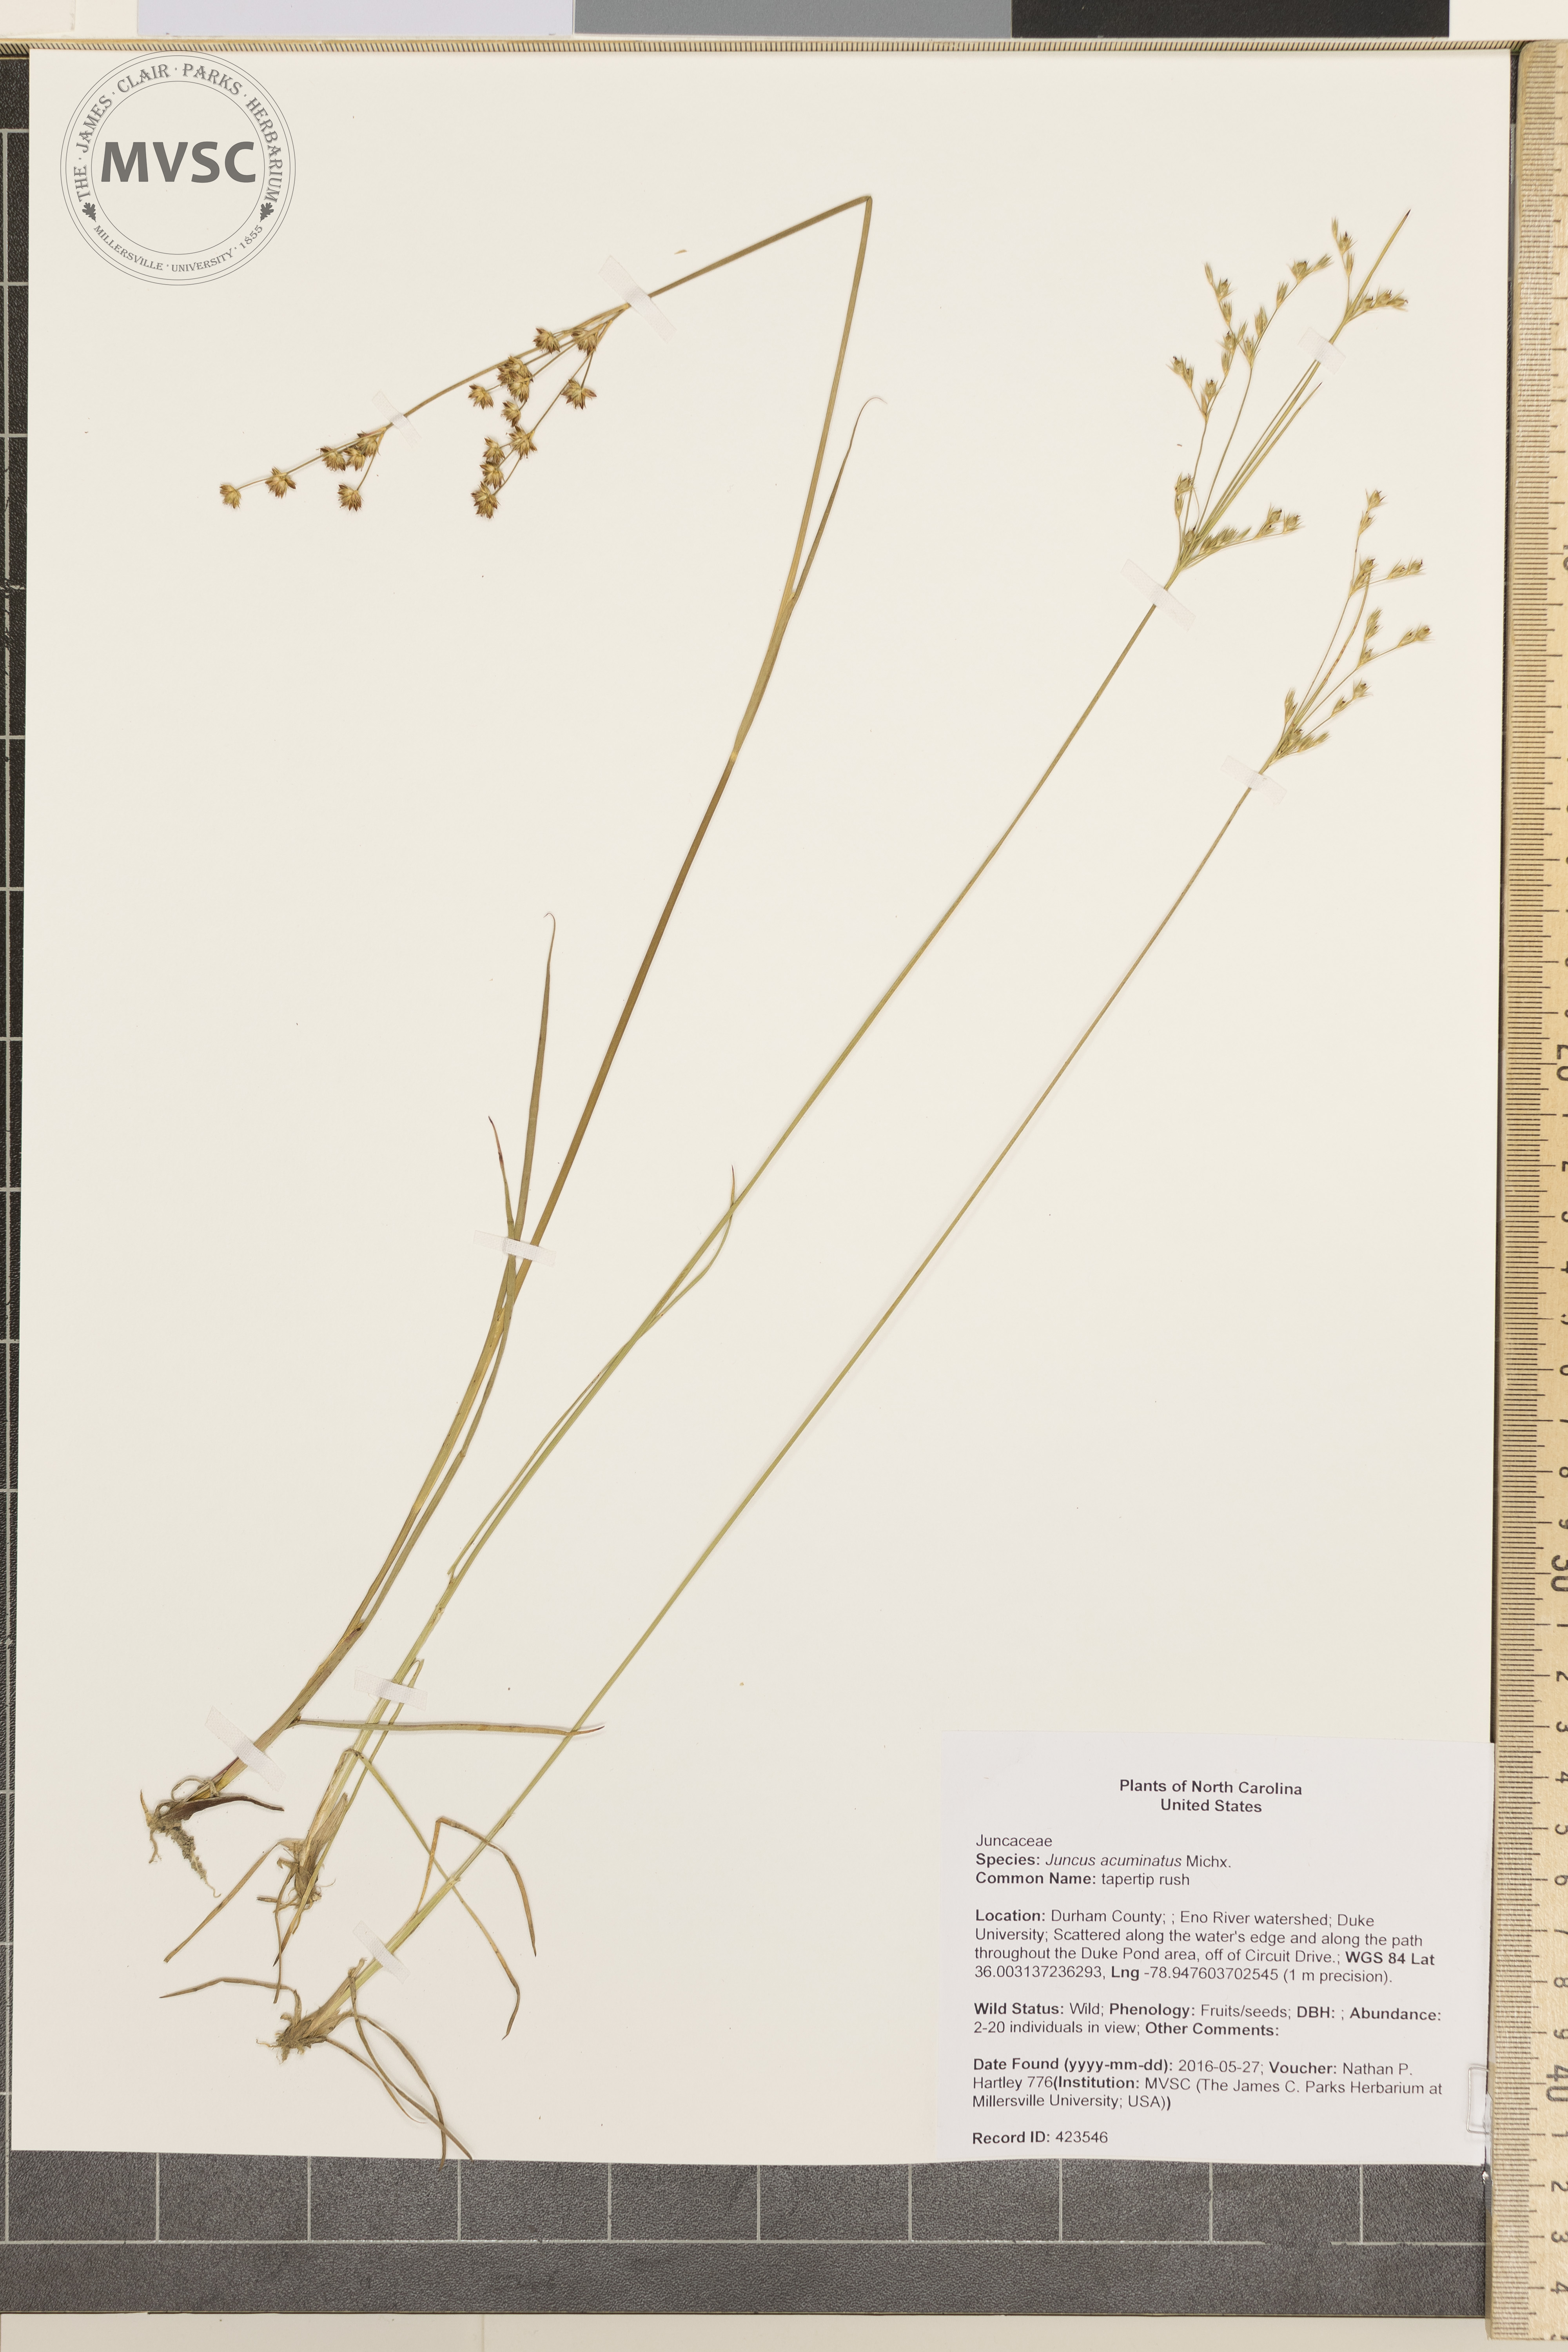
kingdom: Plantae
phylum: Tracheophyta
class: Liliopsida
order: Poales
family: Juncaceae
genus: Juncus
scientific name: Juncus acuminatus
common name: tapertip rush
